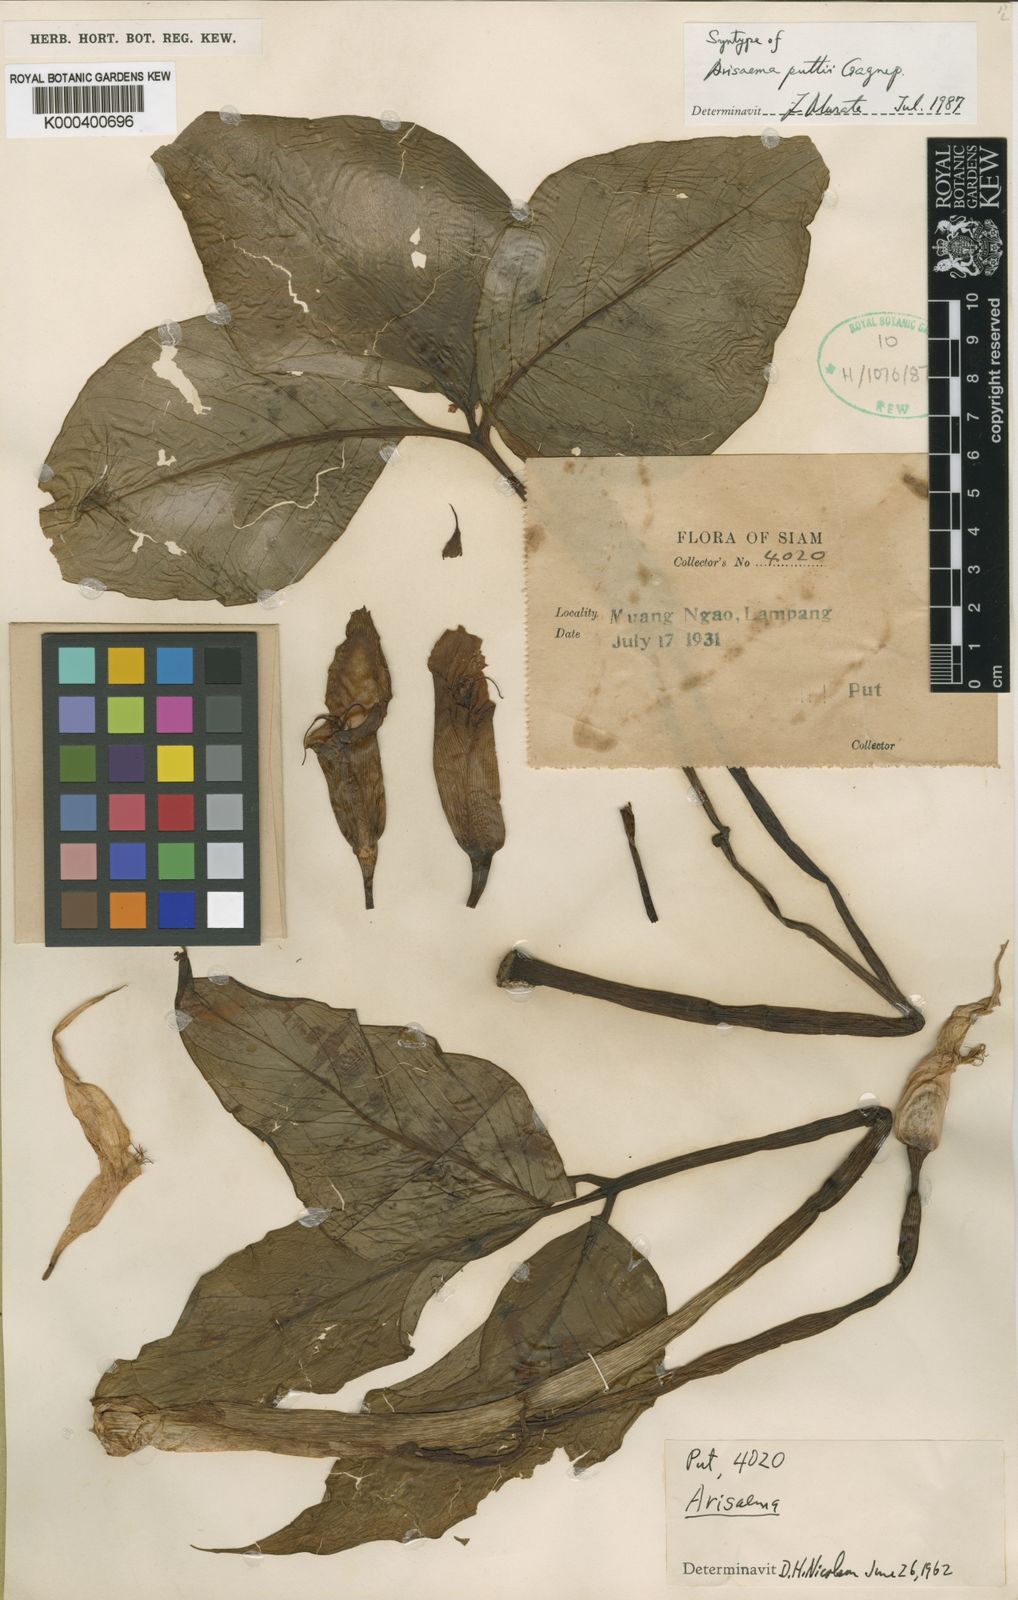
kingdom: Plantae
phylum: Tracheophyta
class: Liliopsida
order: Alismatales
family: Araceae
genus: Arisaema
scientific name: Arisaema fimbriatum
